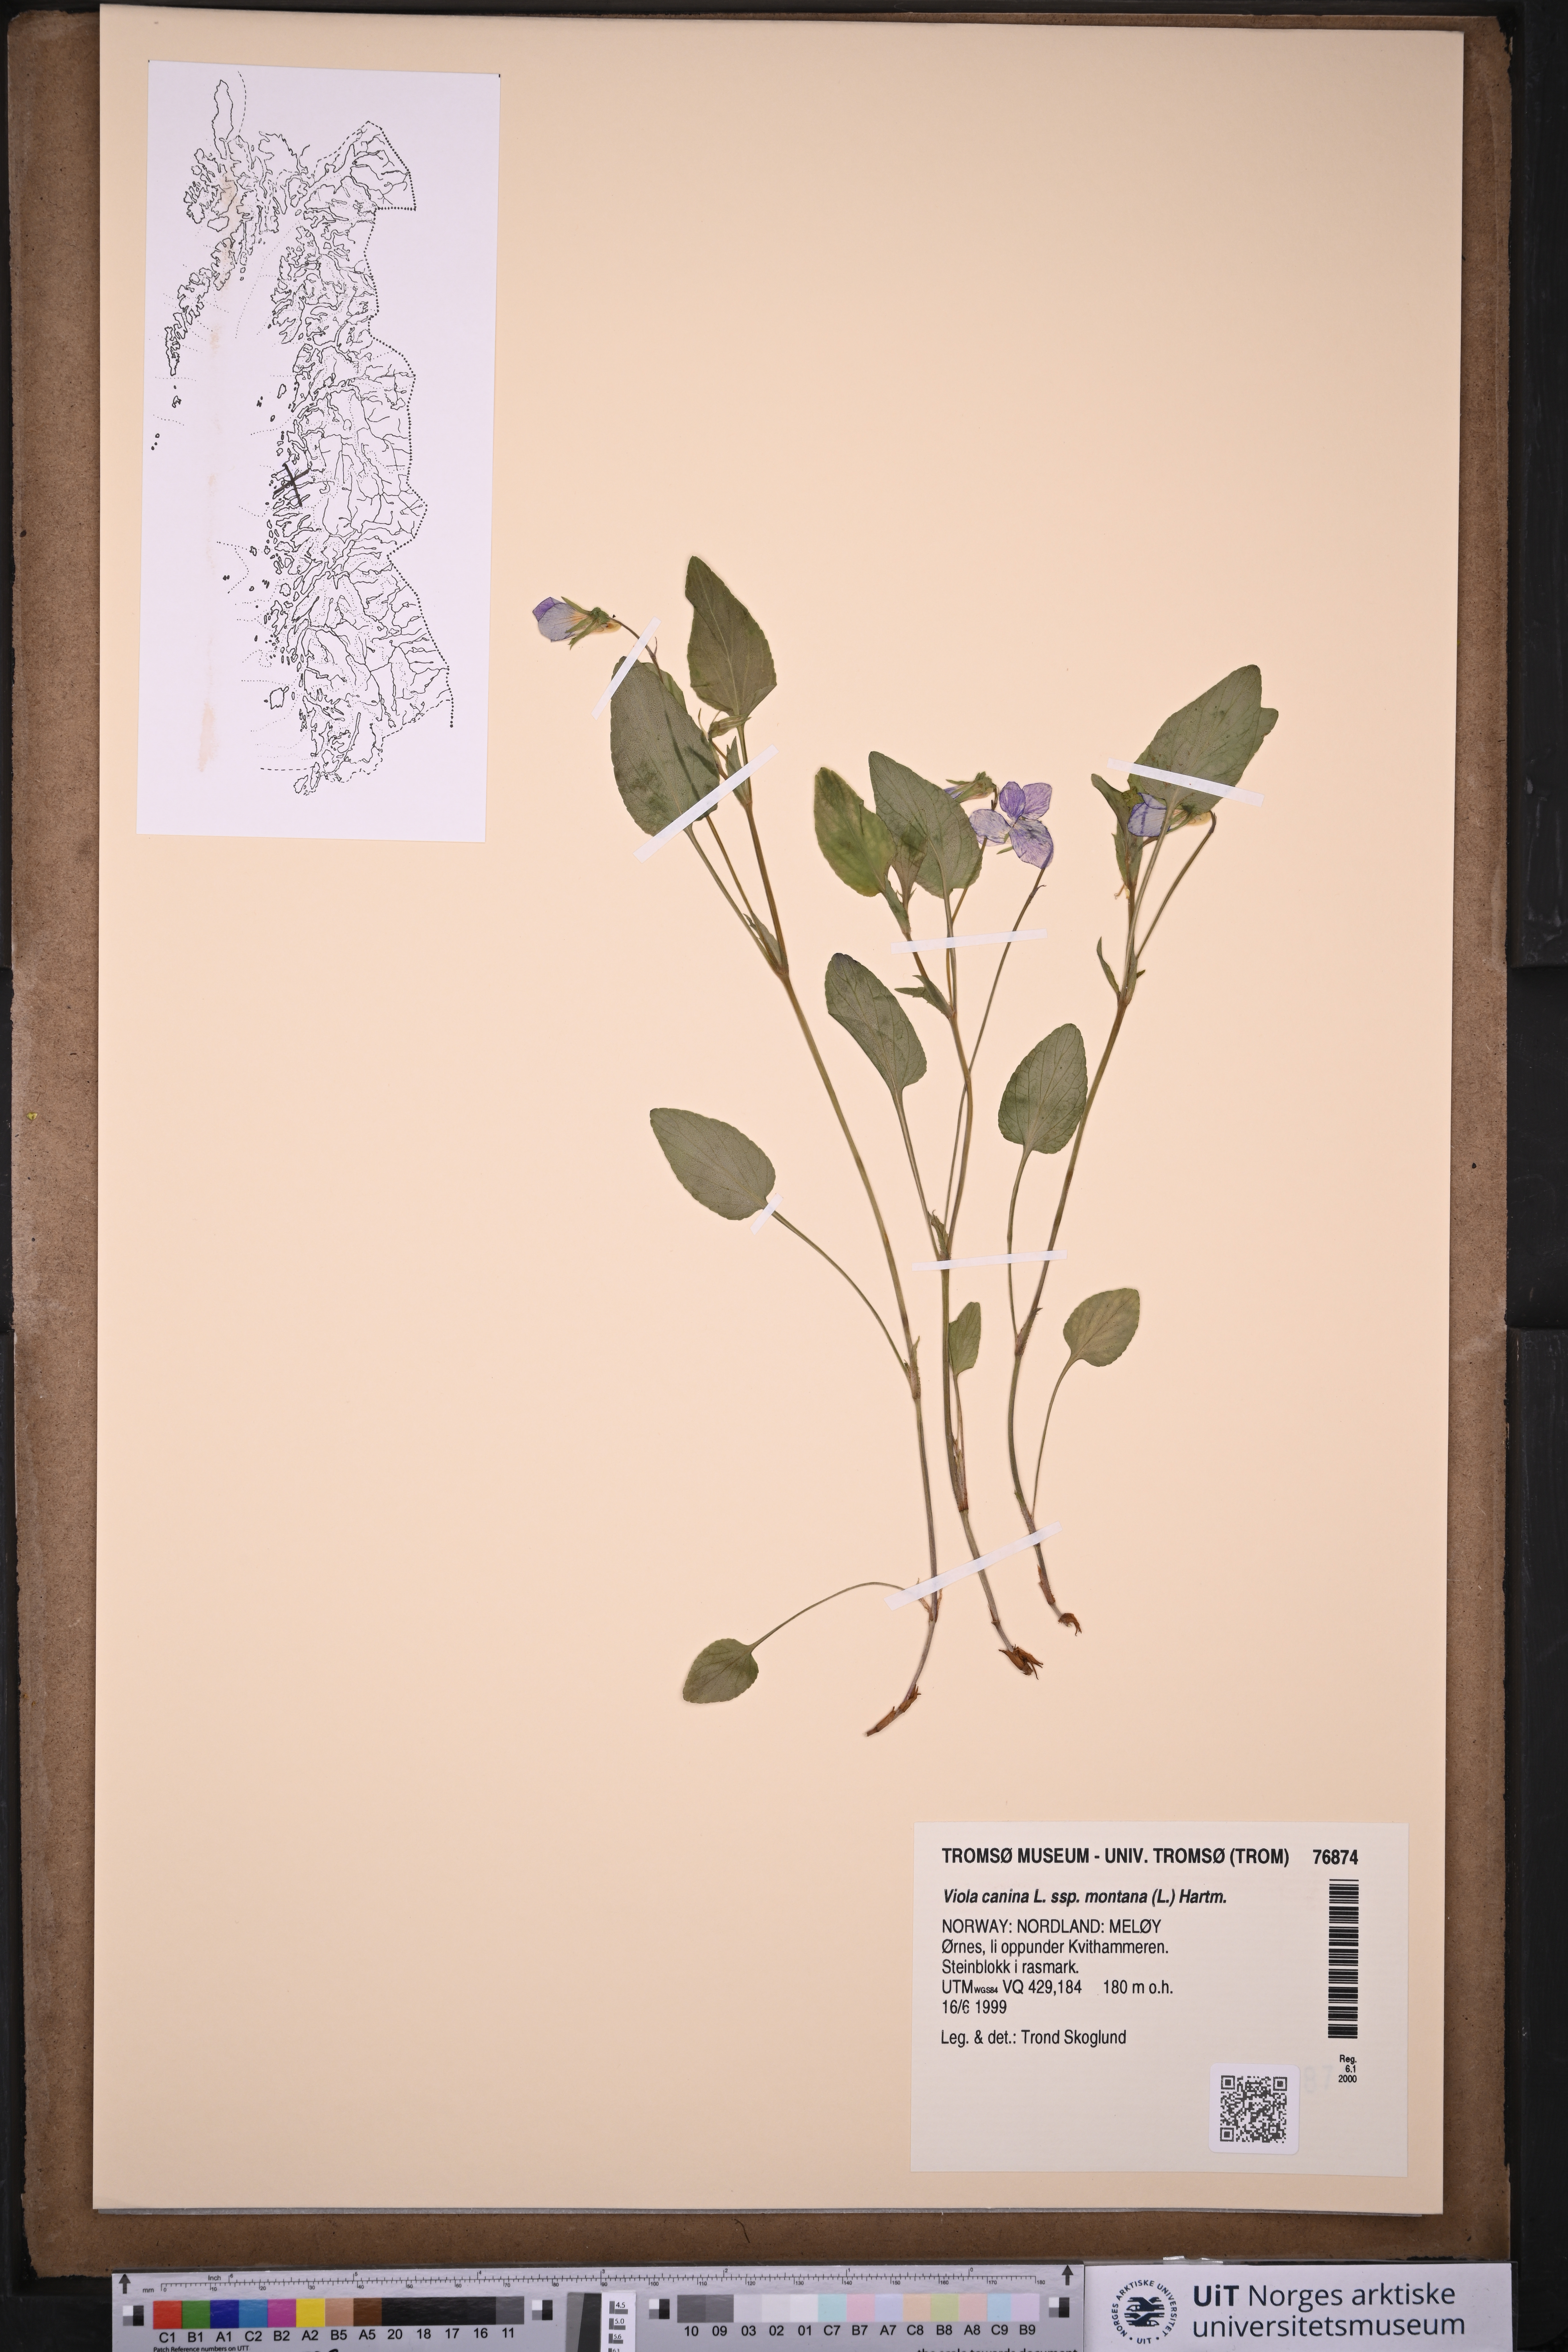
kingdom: Plantae
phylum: Tracheophyta
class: Magnoliopsida
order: Malpighiales
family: Violaceae
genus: Viola
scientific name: Viola ruppii
